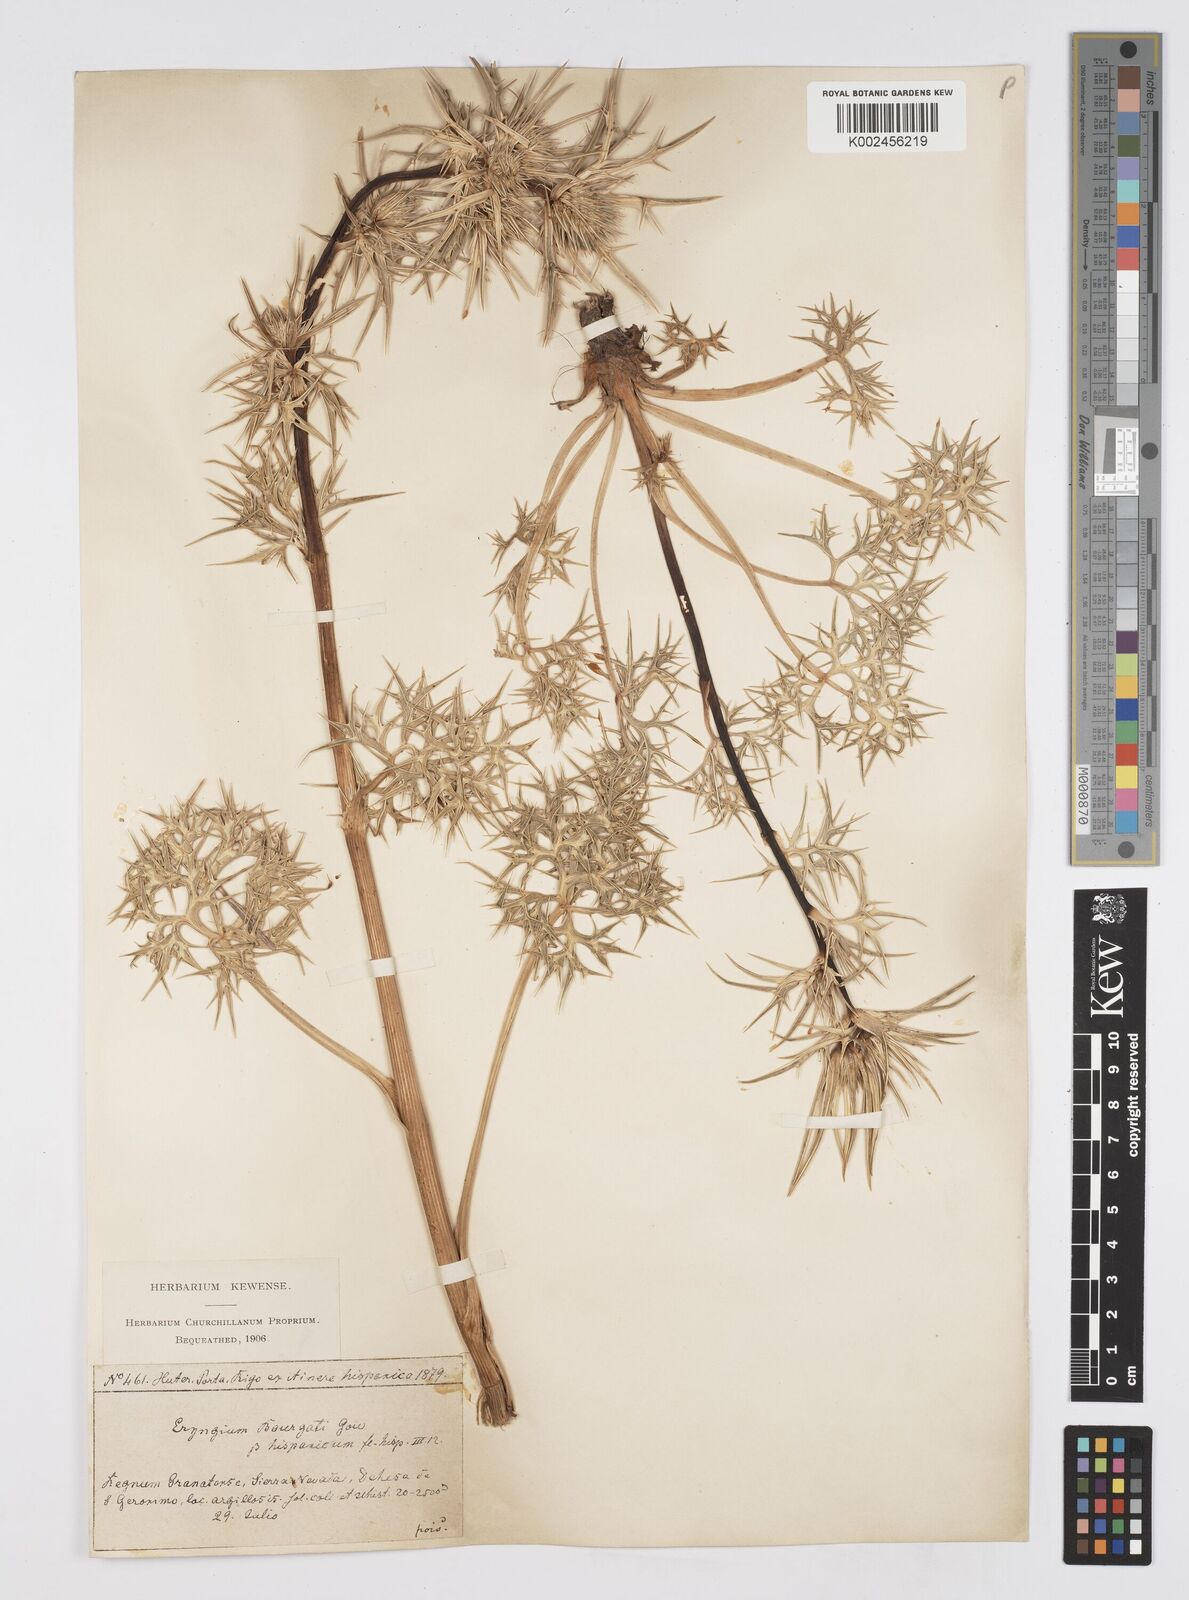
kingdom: Plantae
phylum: Tracheophyta
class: Magnoliopsida
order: Apiales
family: Apiaceae
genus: Eryngium
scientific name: Eryngium bourgatii
